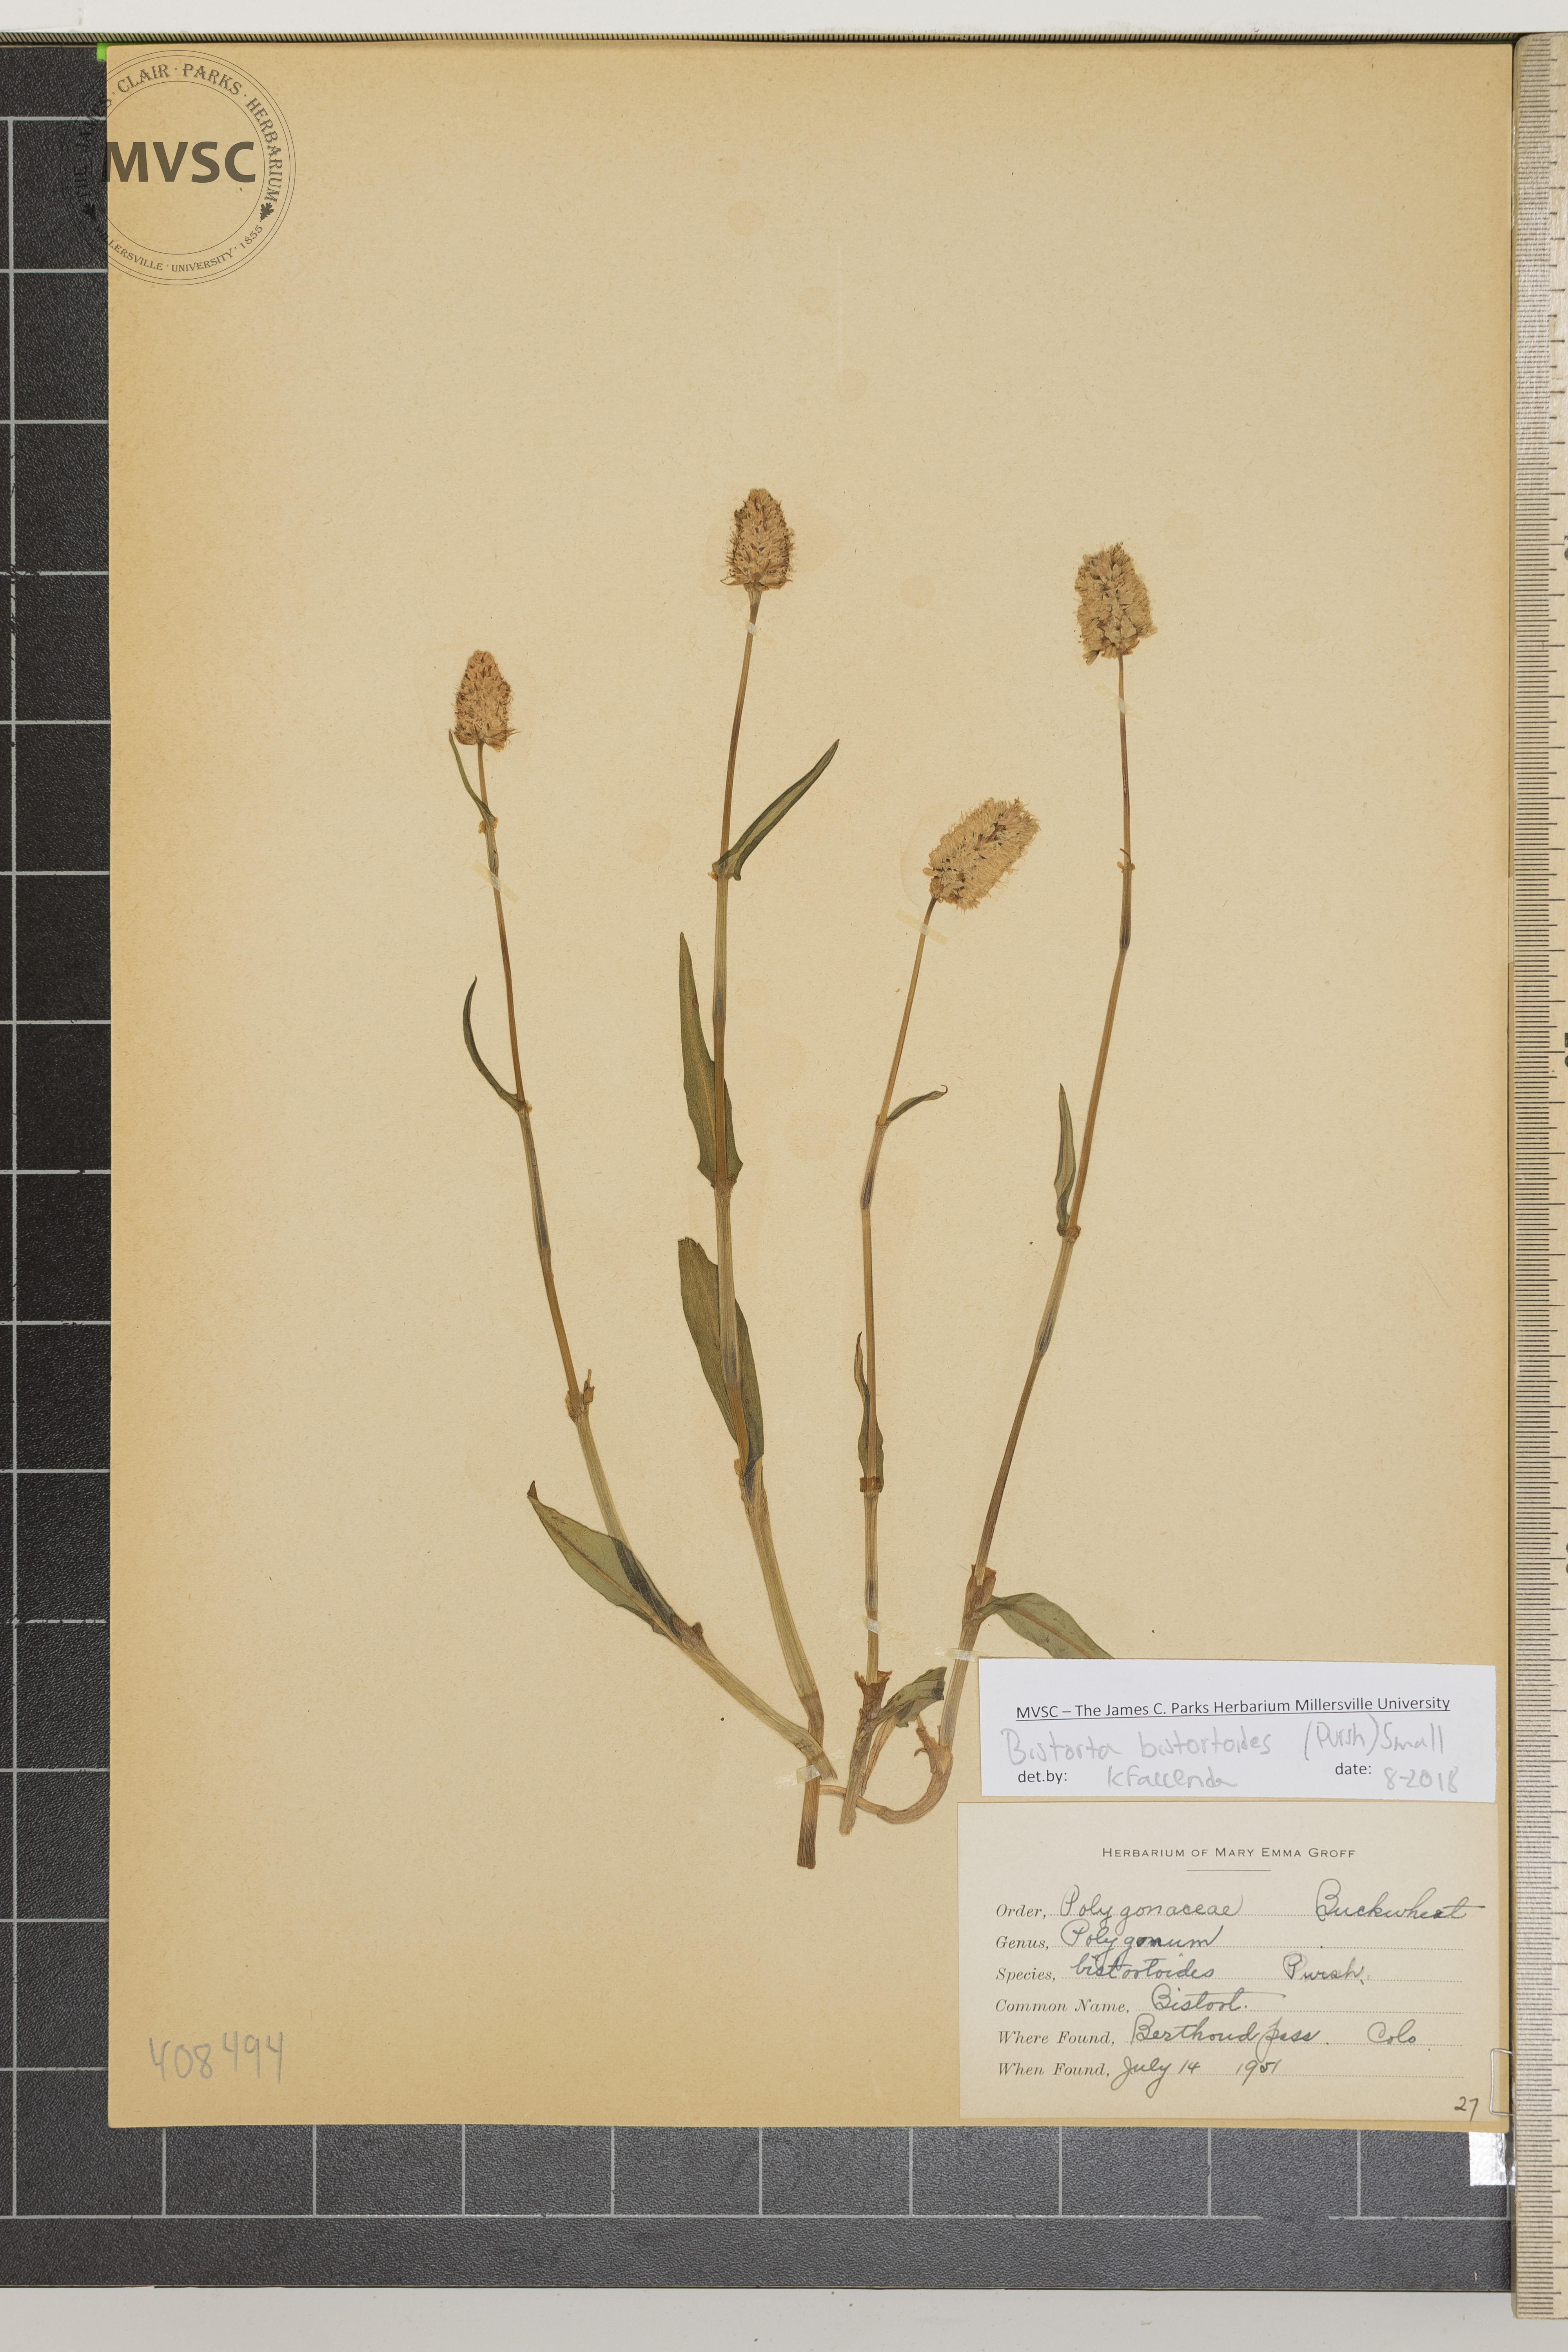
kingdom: Plantae
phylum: Tracheophyta
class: Magnoliopsida
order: Caryophyllales
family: Polygonaceae
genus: Bistorta
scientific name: Bistorta bistortoides
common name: Bistort
